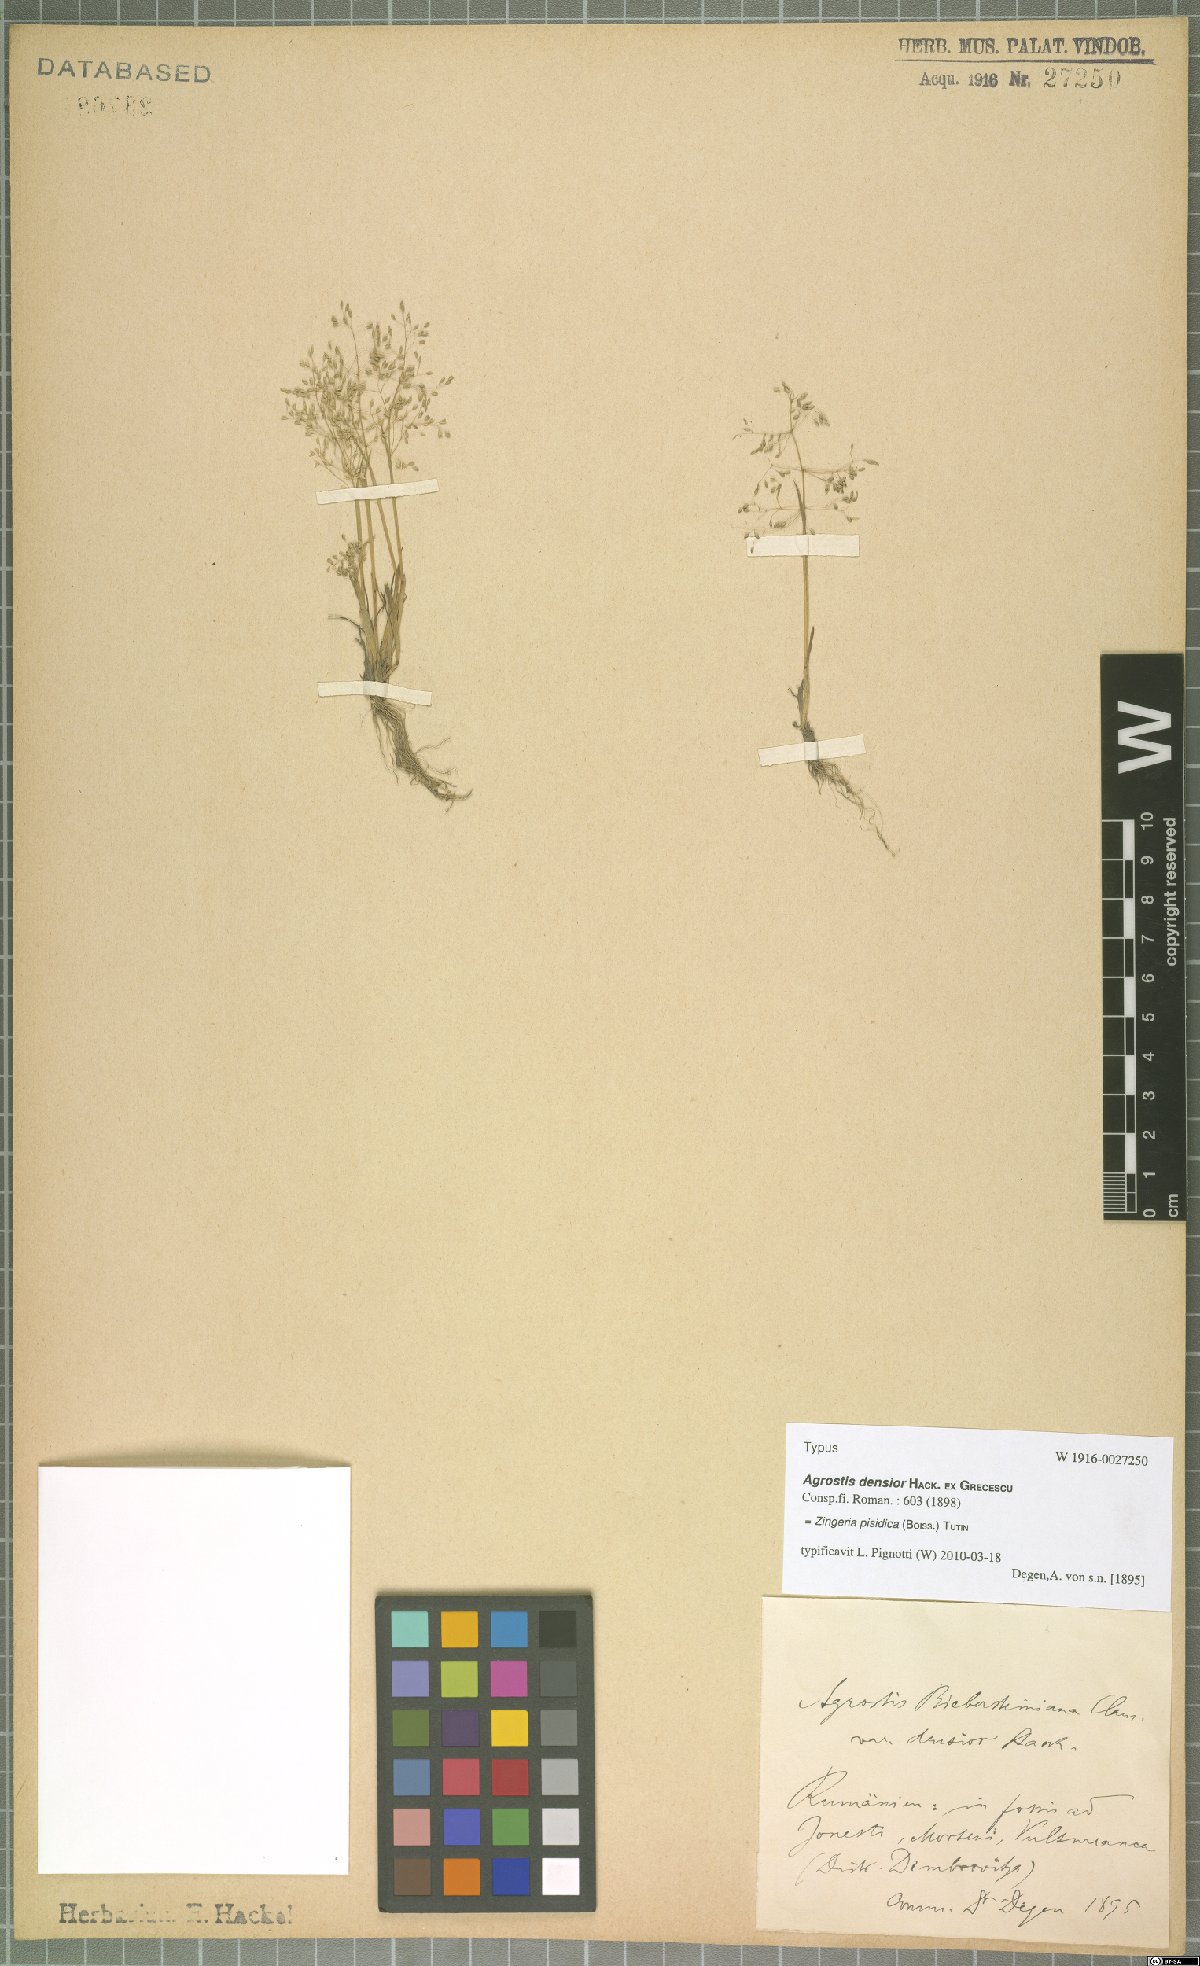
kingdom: Plantae
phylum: Tracheophyta
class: Liliopsida
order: Poales
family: Poaceae
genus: Colpodium
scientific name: Colpodium pisidicum
